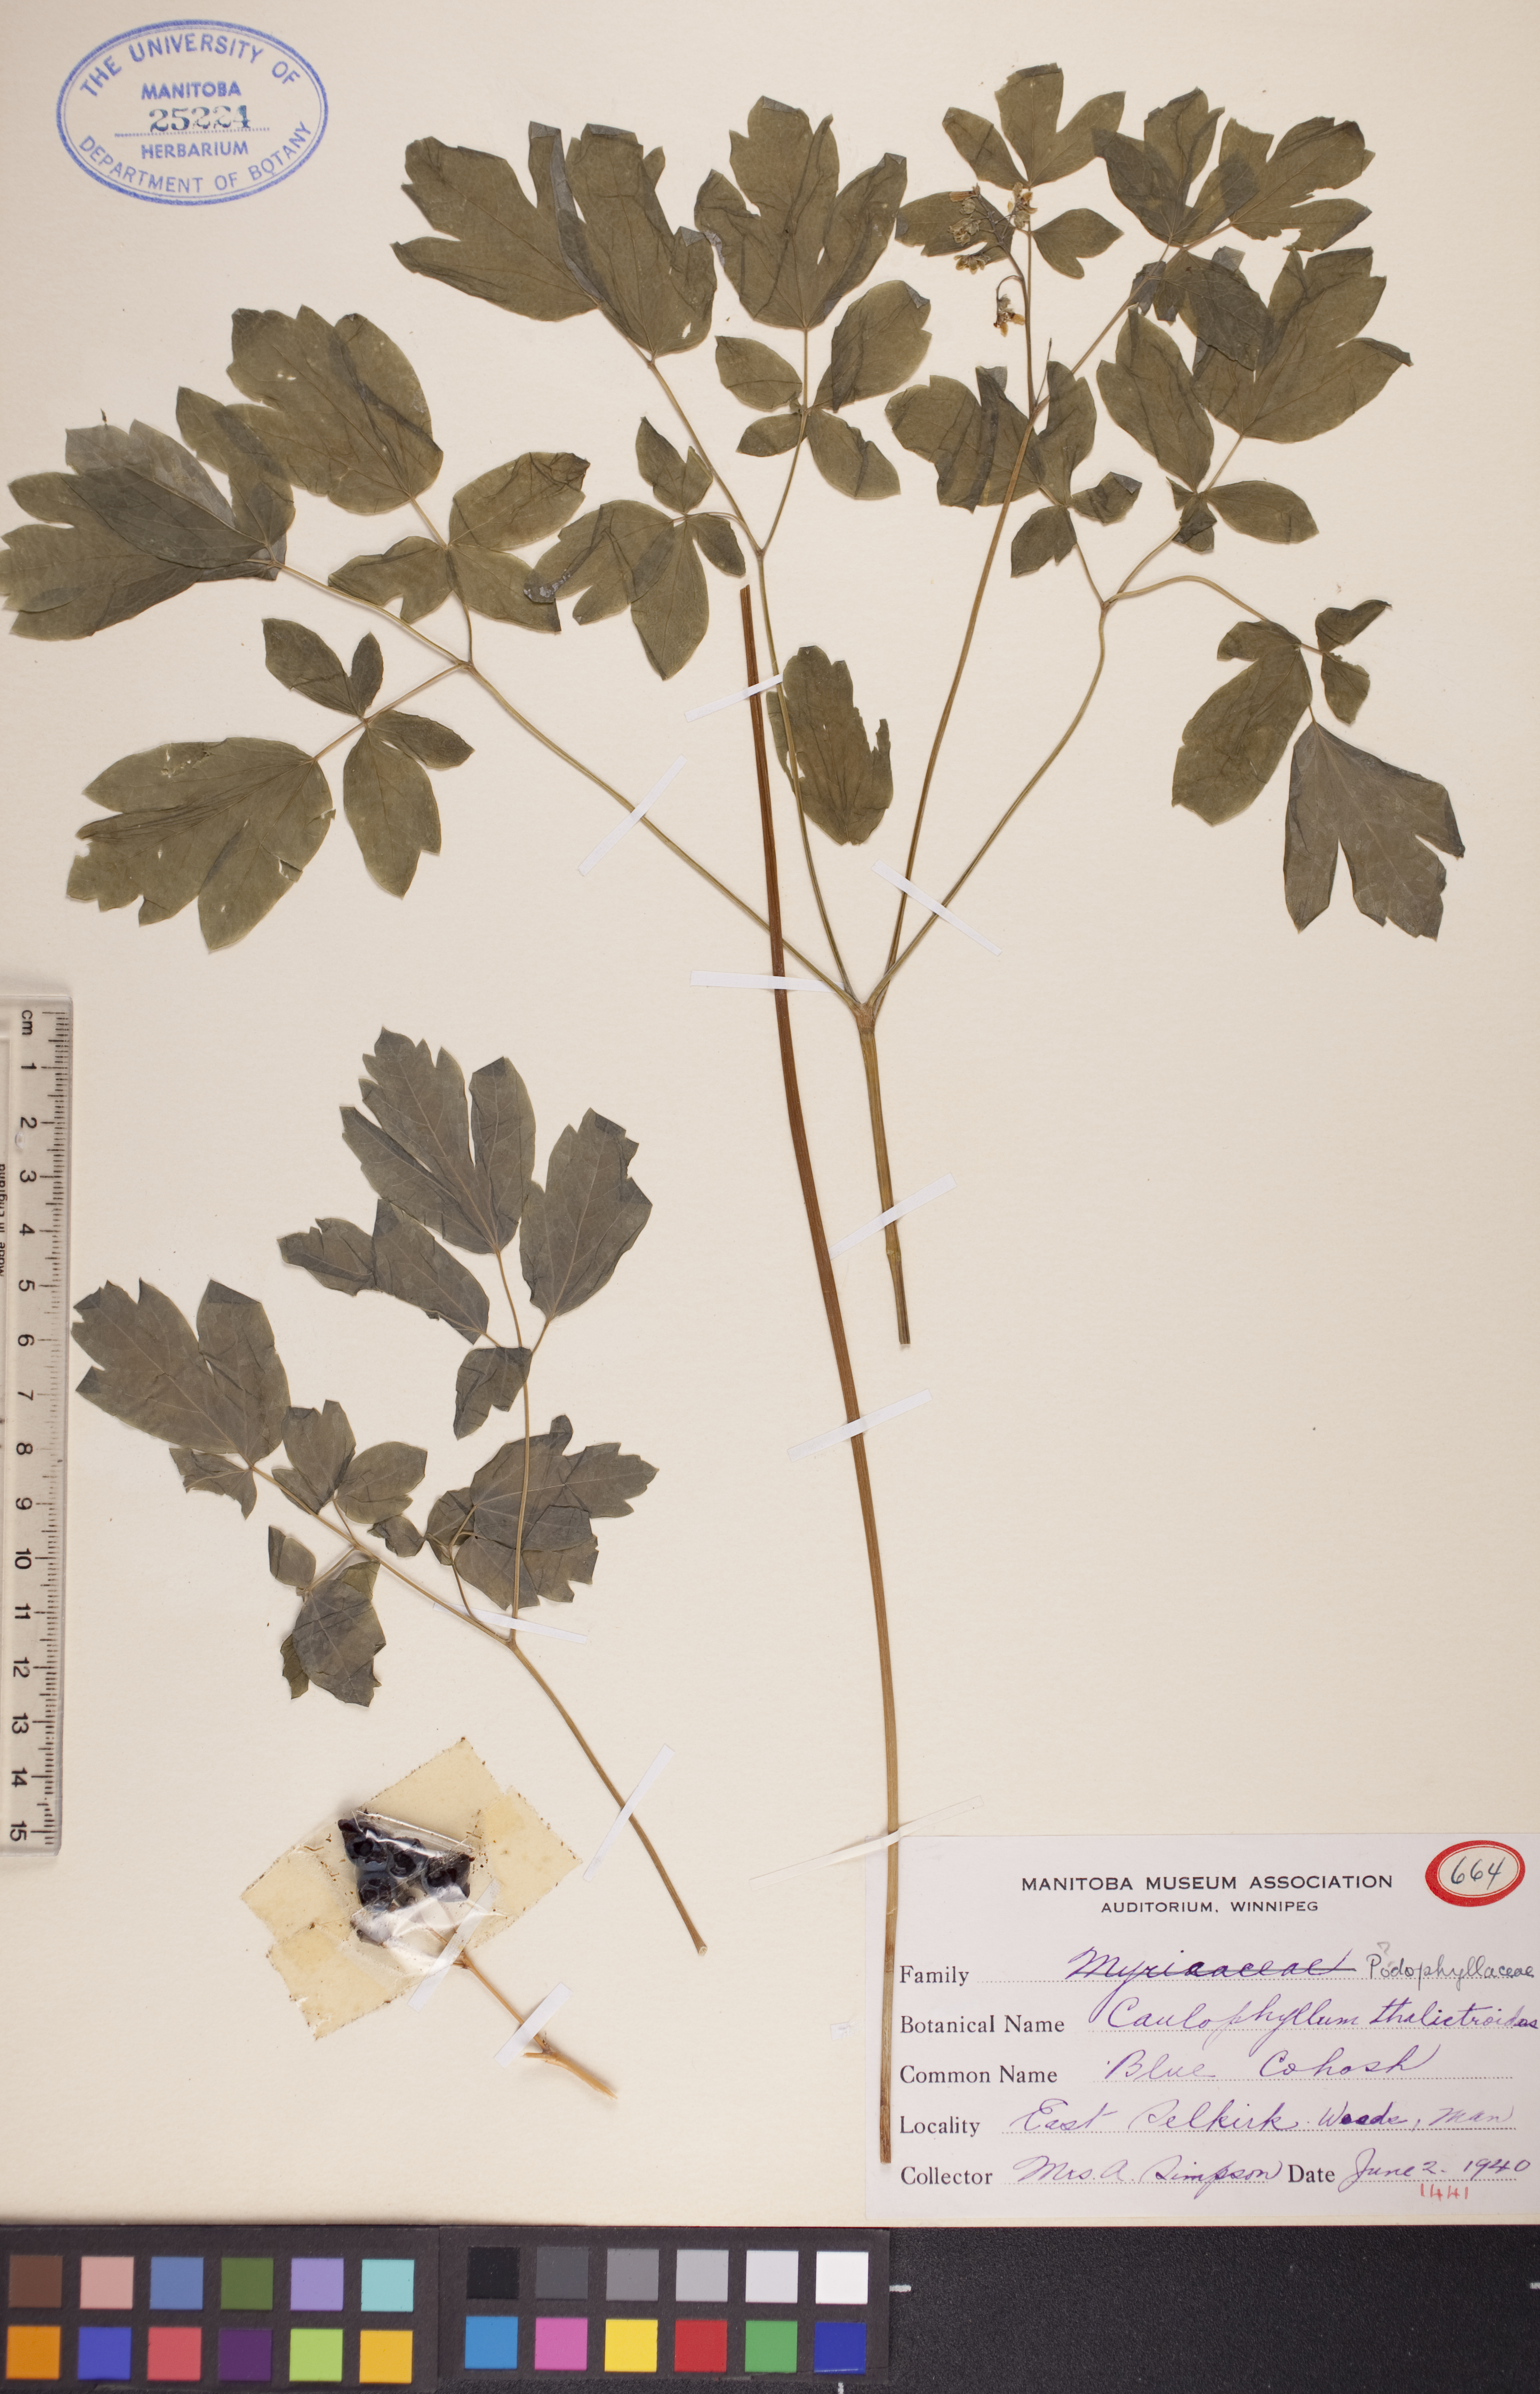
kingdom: Plantae
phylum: Tracheophyta
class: Magnoliopsida
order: Ranunculales
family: Berberidaceae
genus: Caulophyllum
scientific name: Caulophyllum thalictroides
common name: Blue cohosh
